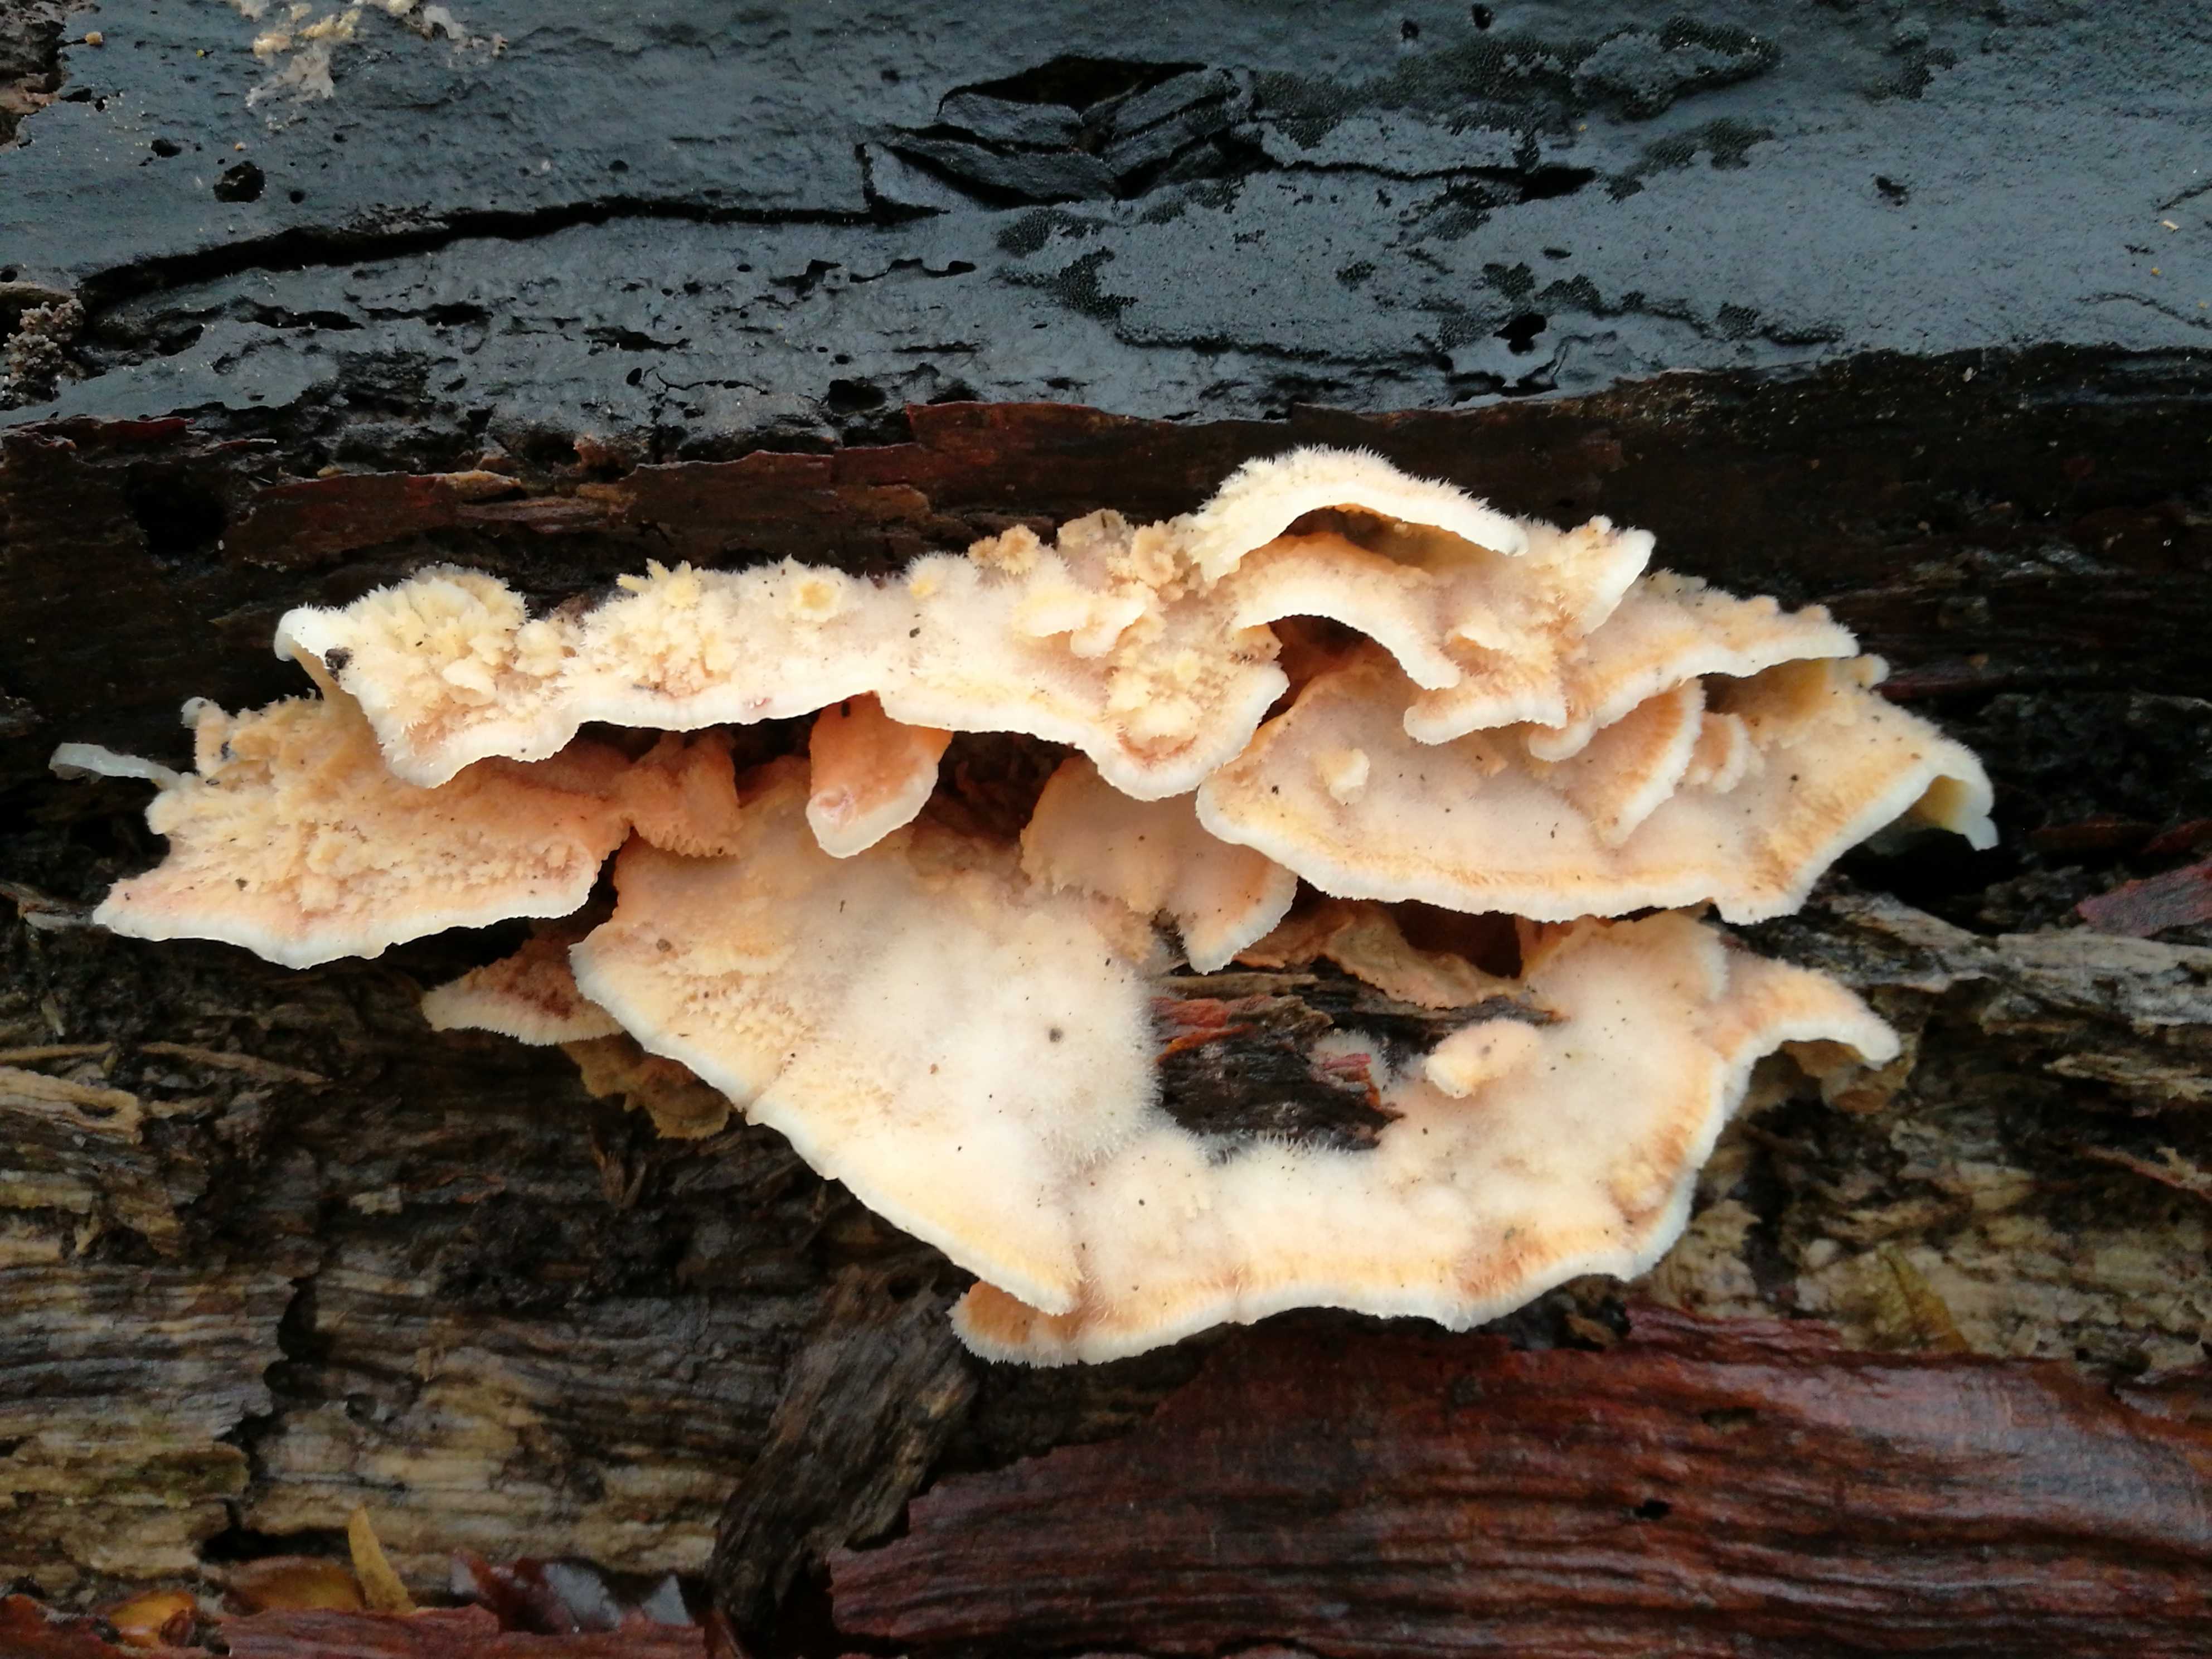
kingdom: Fungi
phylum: Basidiomycota
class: Agaricomycetes
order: Polyporales
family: Meruliaceae
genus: Phlebia
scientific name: Phlebia tremellosa
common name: bævrende åresvamp
